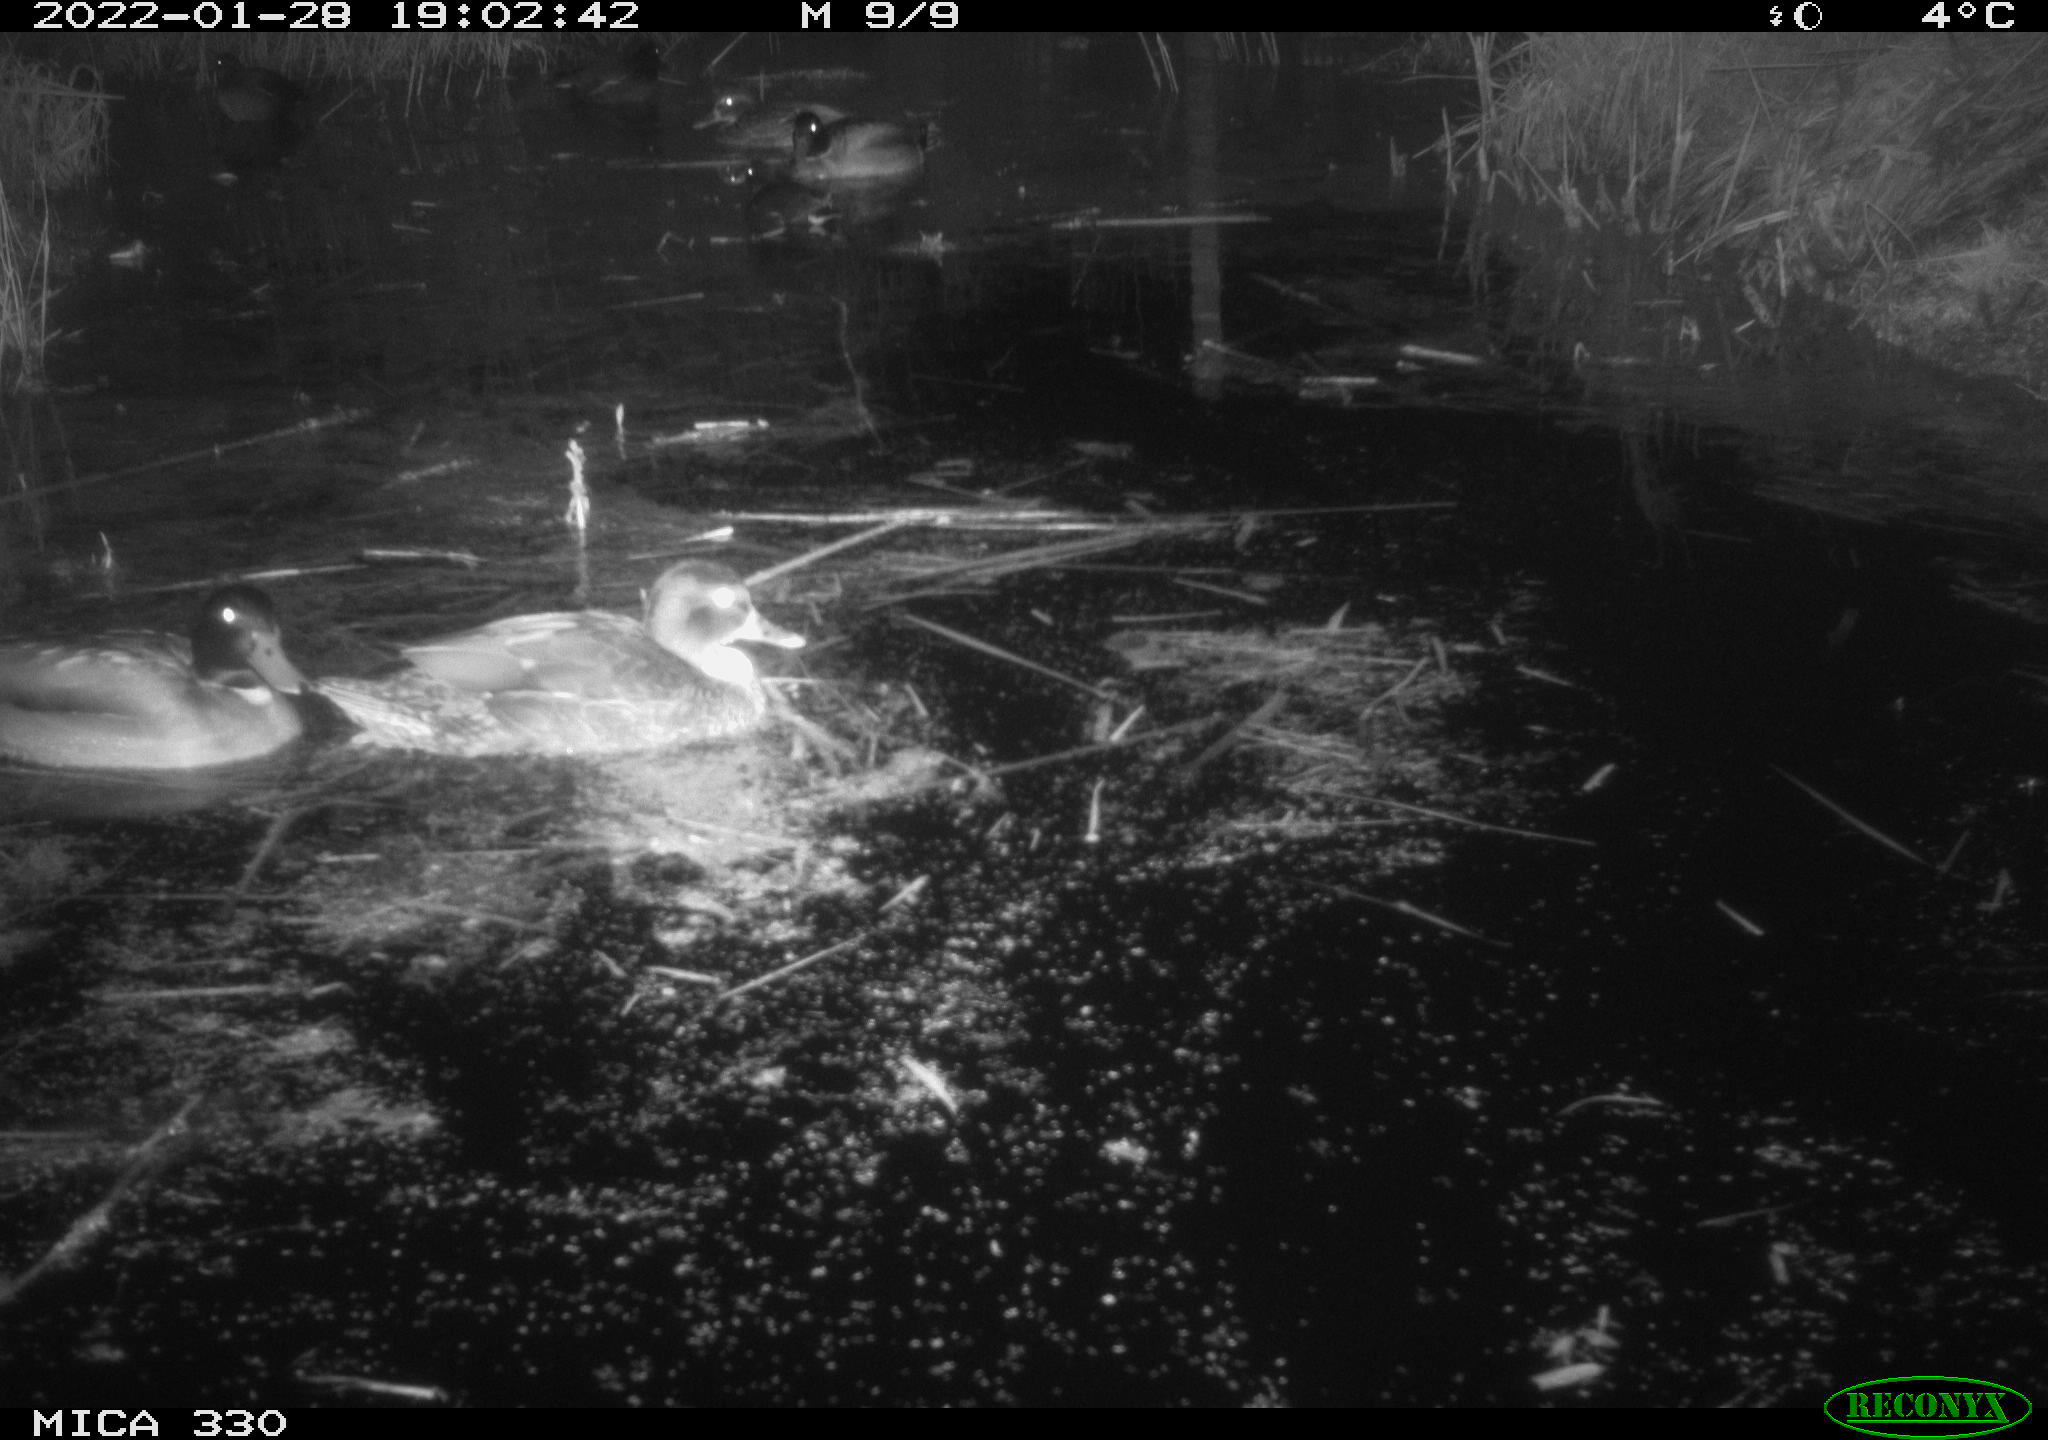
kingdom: Animalia
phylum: Chordata
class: Aves
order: Anseriformes
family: Anatidae
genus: Anas
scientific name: Anas platyrhynchos
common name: Mallard
